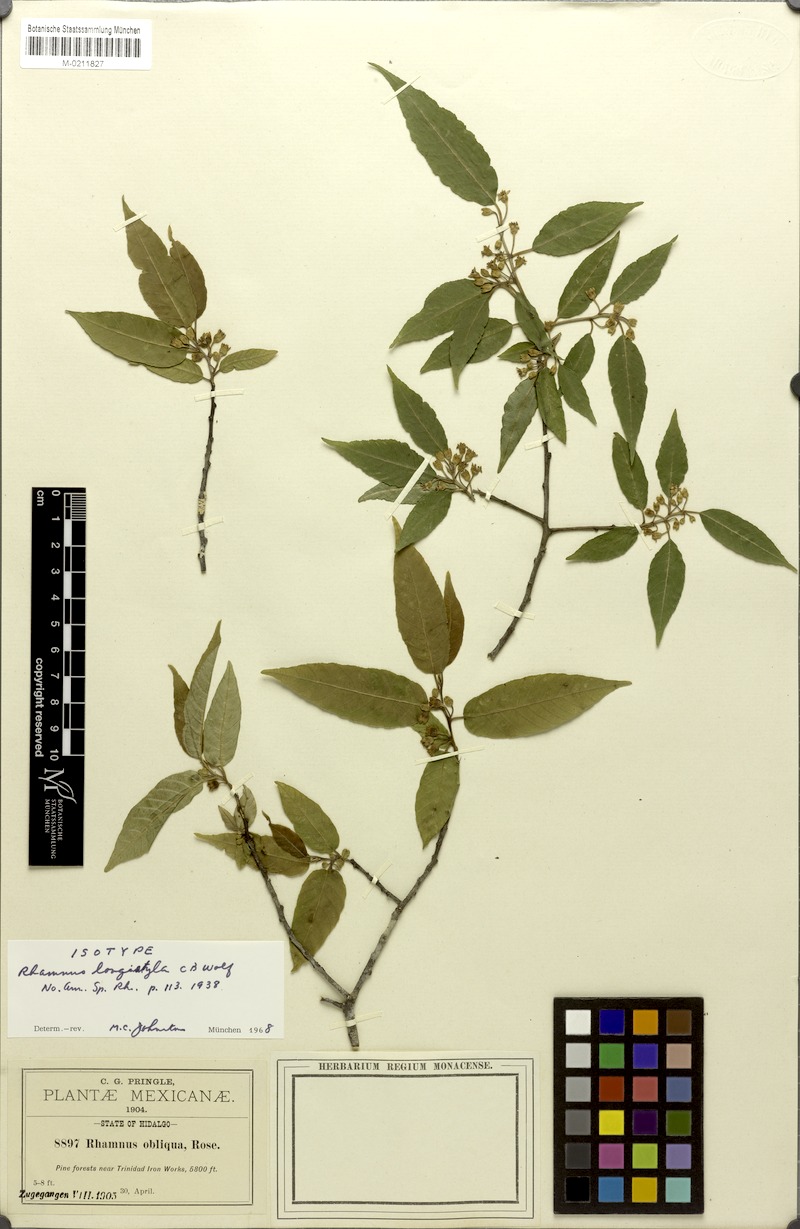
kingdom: Plantae
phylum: Tracheophyta
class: Magnoliopsida
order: Rosales
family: Rhamnaceae
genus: Frangula
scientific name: Frangula longistyla
